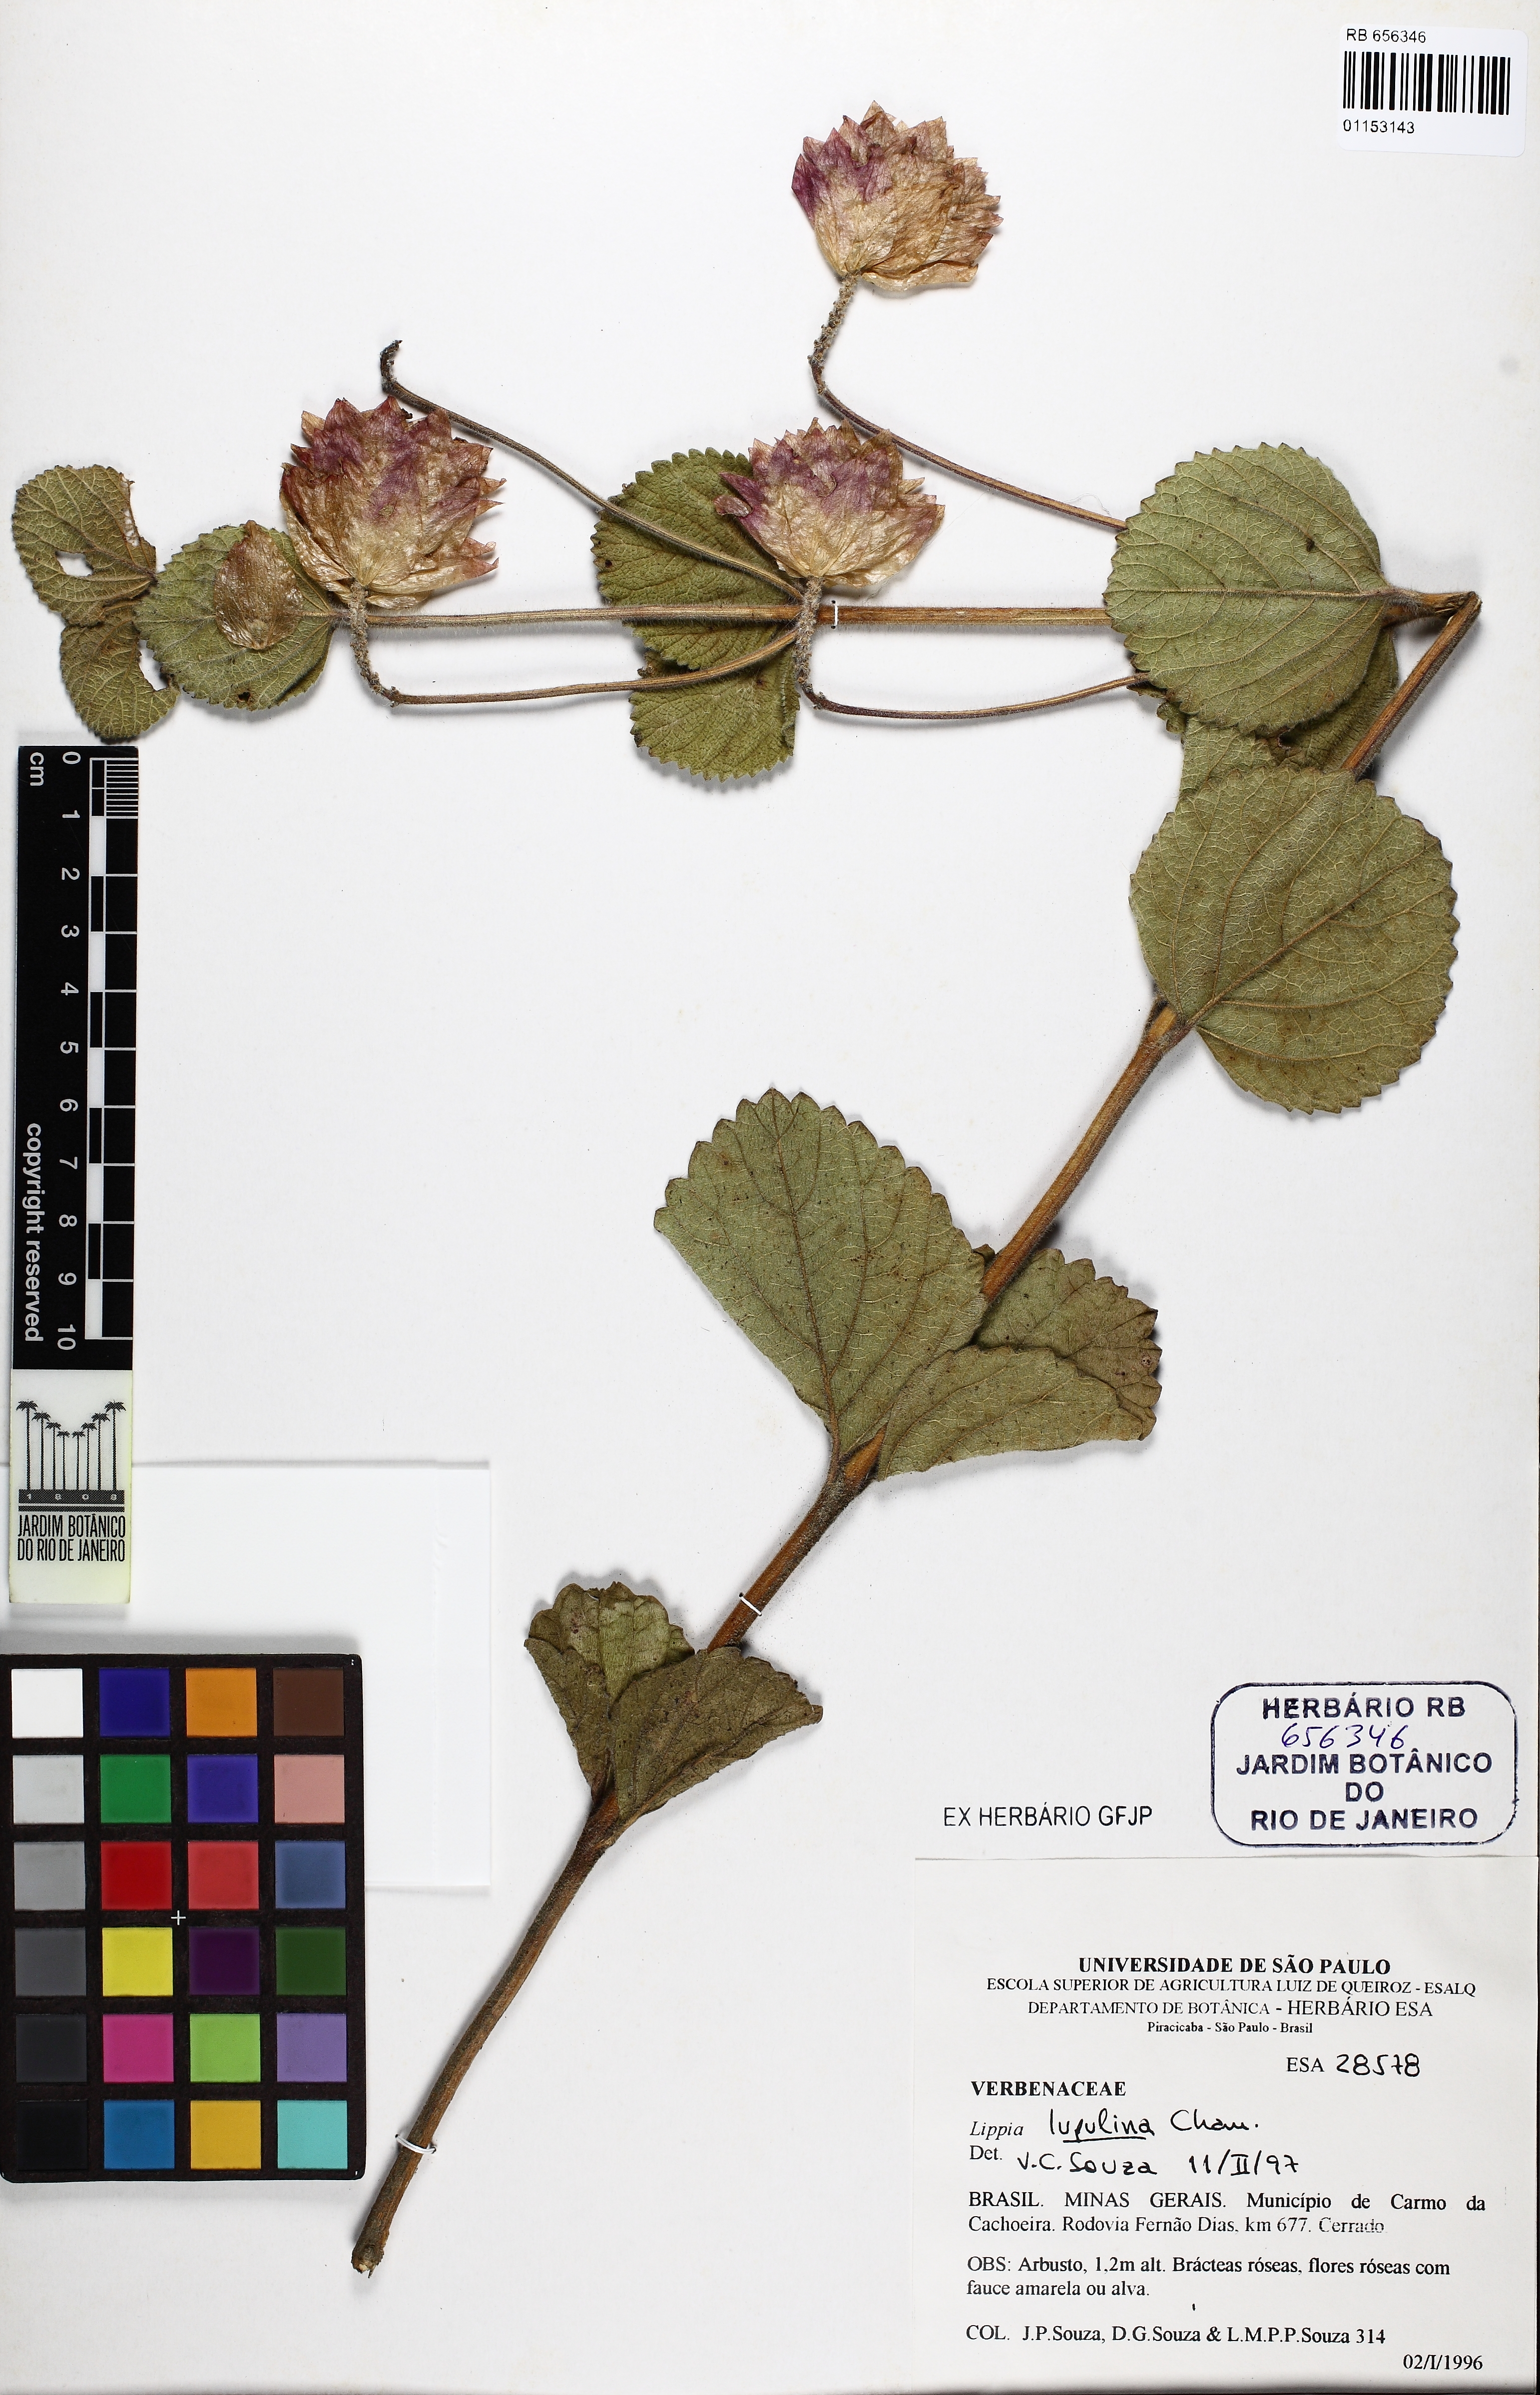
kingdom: Plantae
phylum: Tracheophyta
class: Magnoliopsida
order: Lamiales
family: Verbenaceae
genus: Lippia
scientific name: Lippia lupulina
